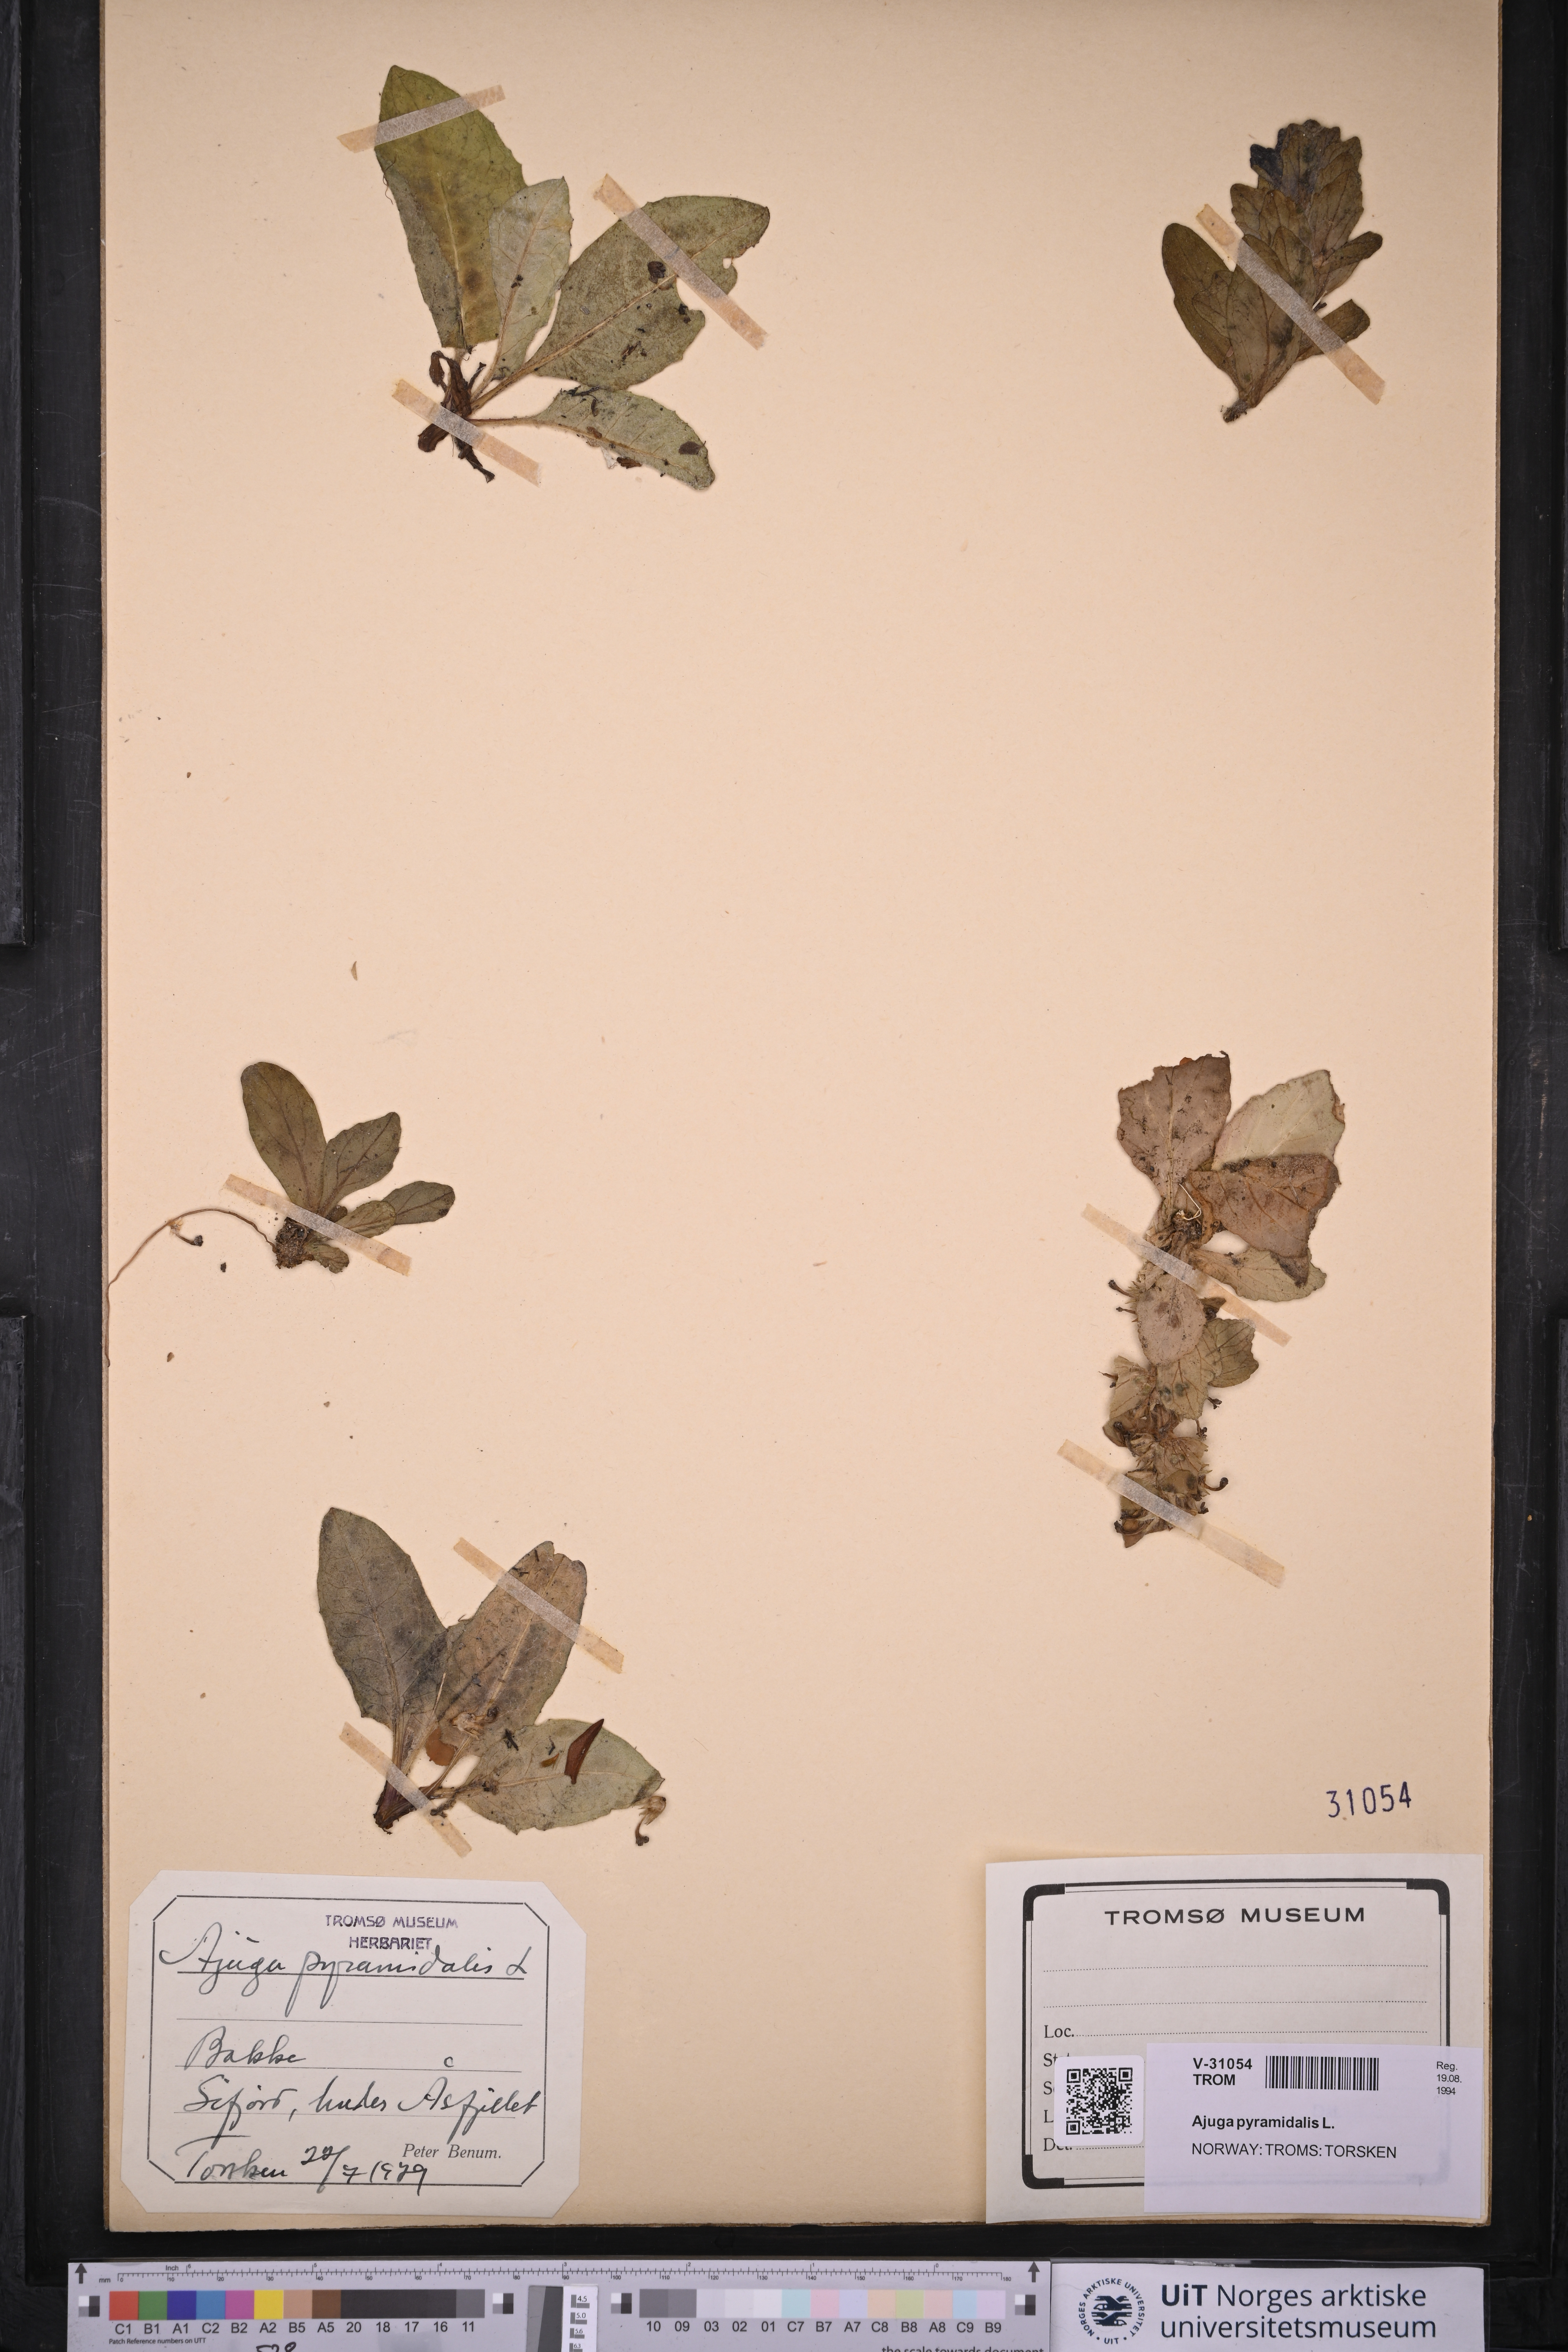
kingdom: Plantae
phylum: Tracheophyta
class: Magnoliopsida
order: Lamiales
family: Lamiaceae
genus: Ajuga
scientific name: Ajuga pyramidalis
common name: Pyramid bugle
